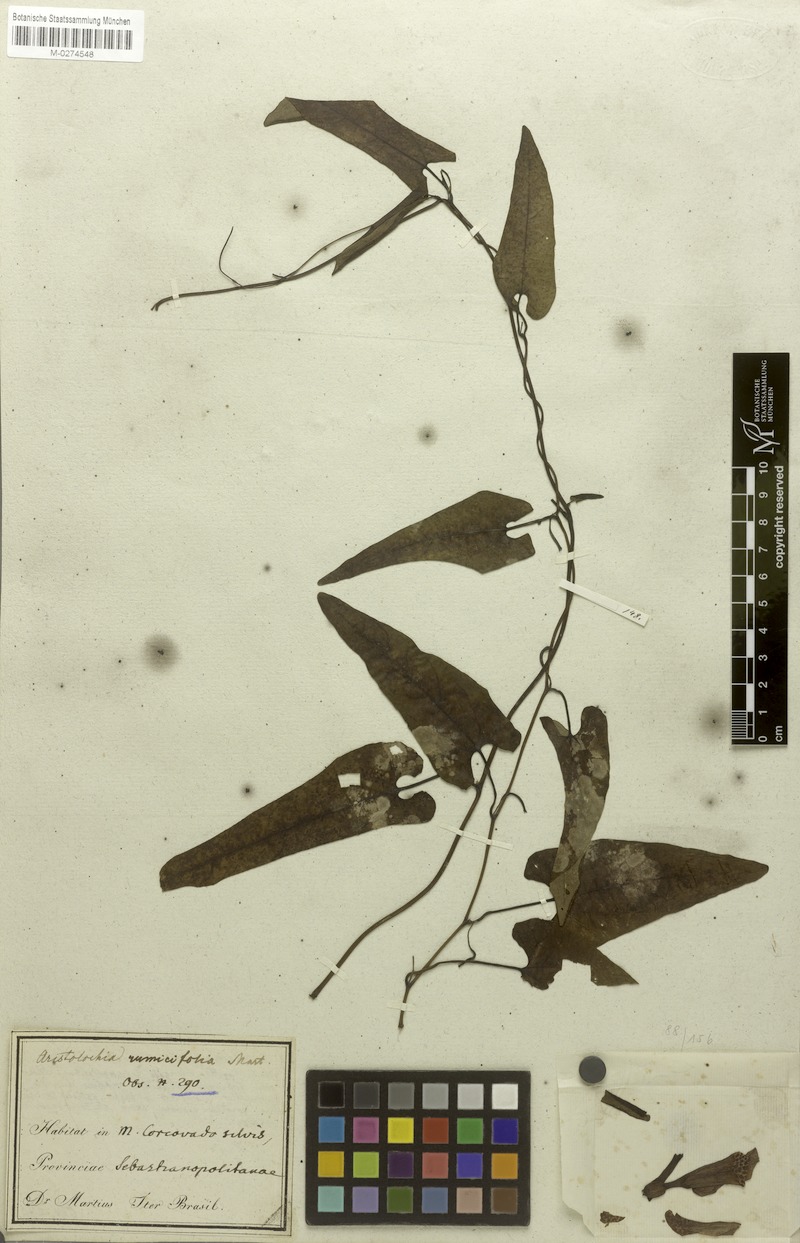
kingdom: Plantae
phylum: Tracheophyta
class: Magnoliopsida
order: Piperales
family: Aristolochiaceae
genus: Aristolochia
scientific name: Aristolochia rumicifolia
